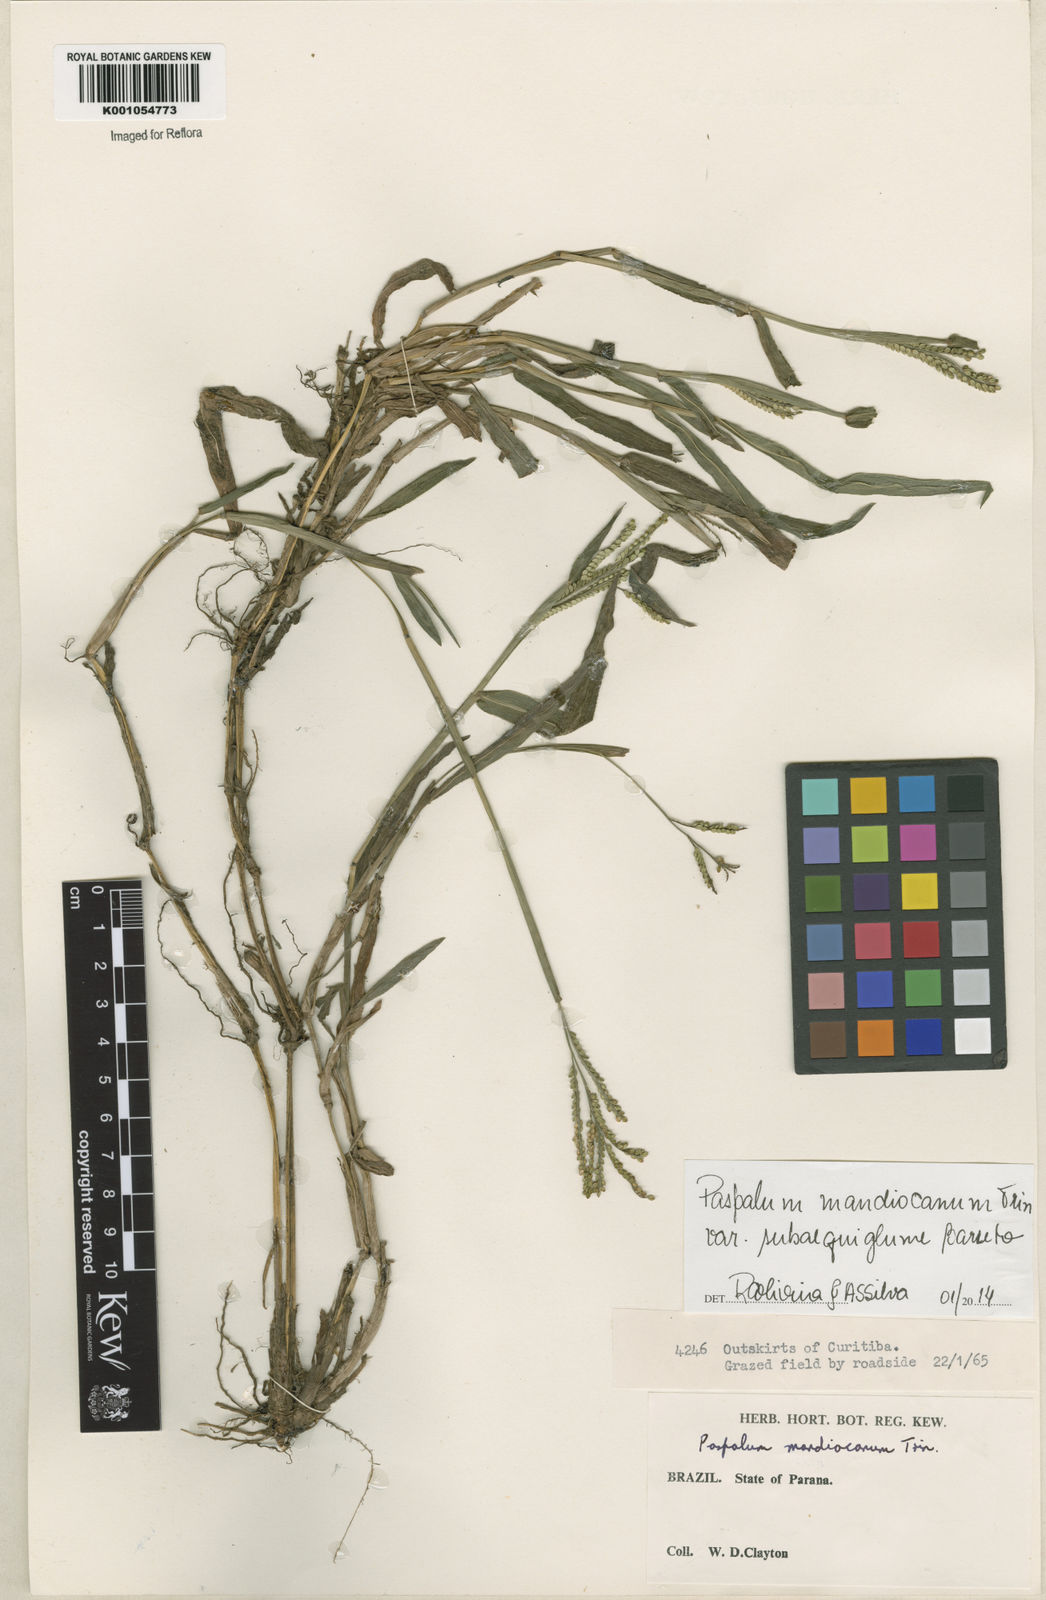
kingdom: Plantae
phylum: Tracheophyta
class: Liliopsida
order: Poales
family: Poaceae
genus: Paspalum
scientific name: Paspalum mandiocanum
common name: Paspalum
